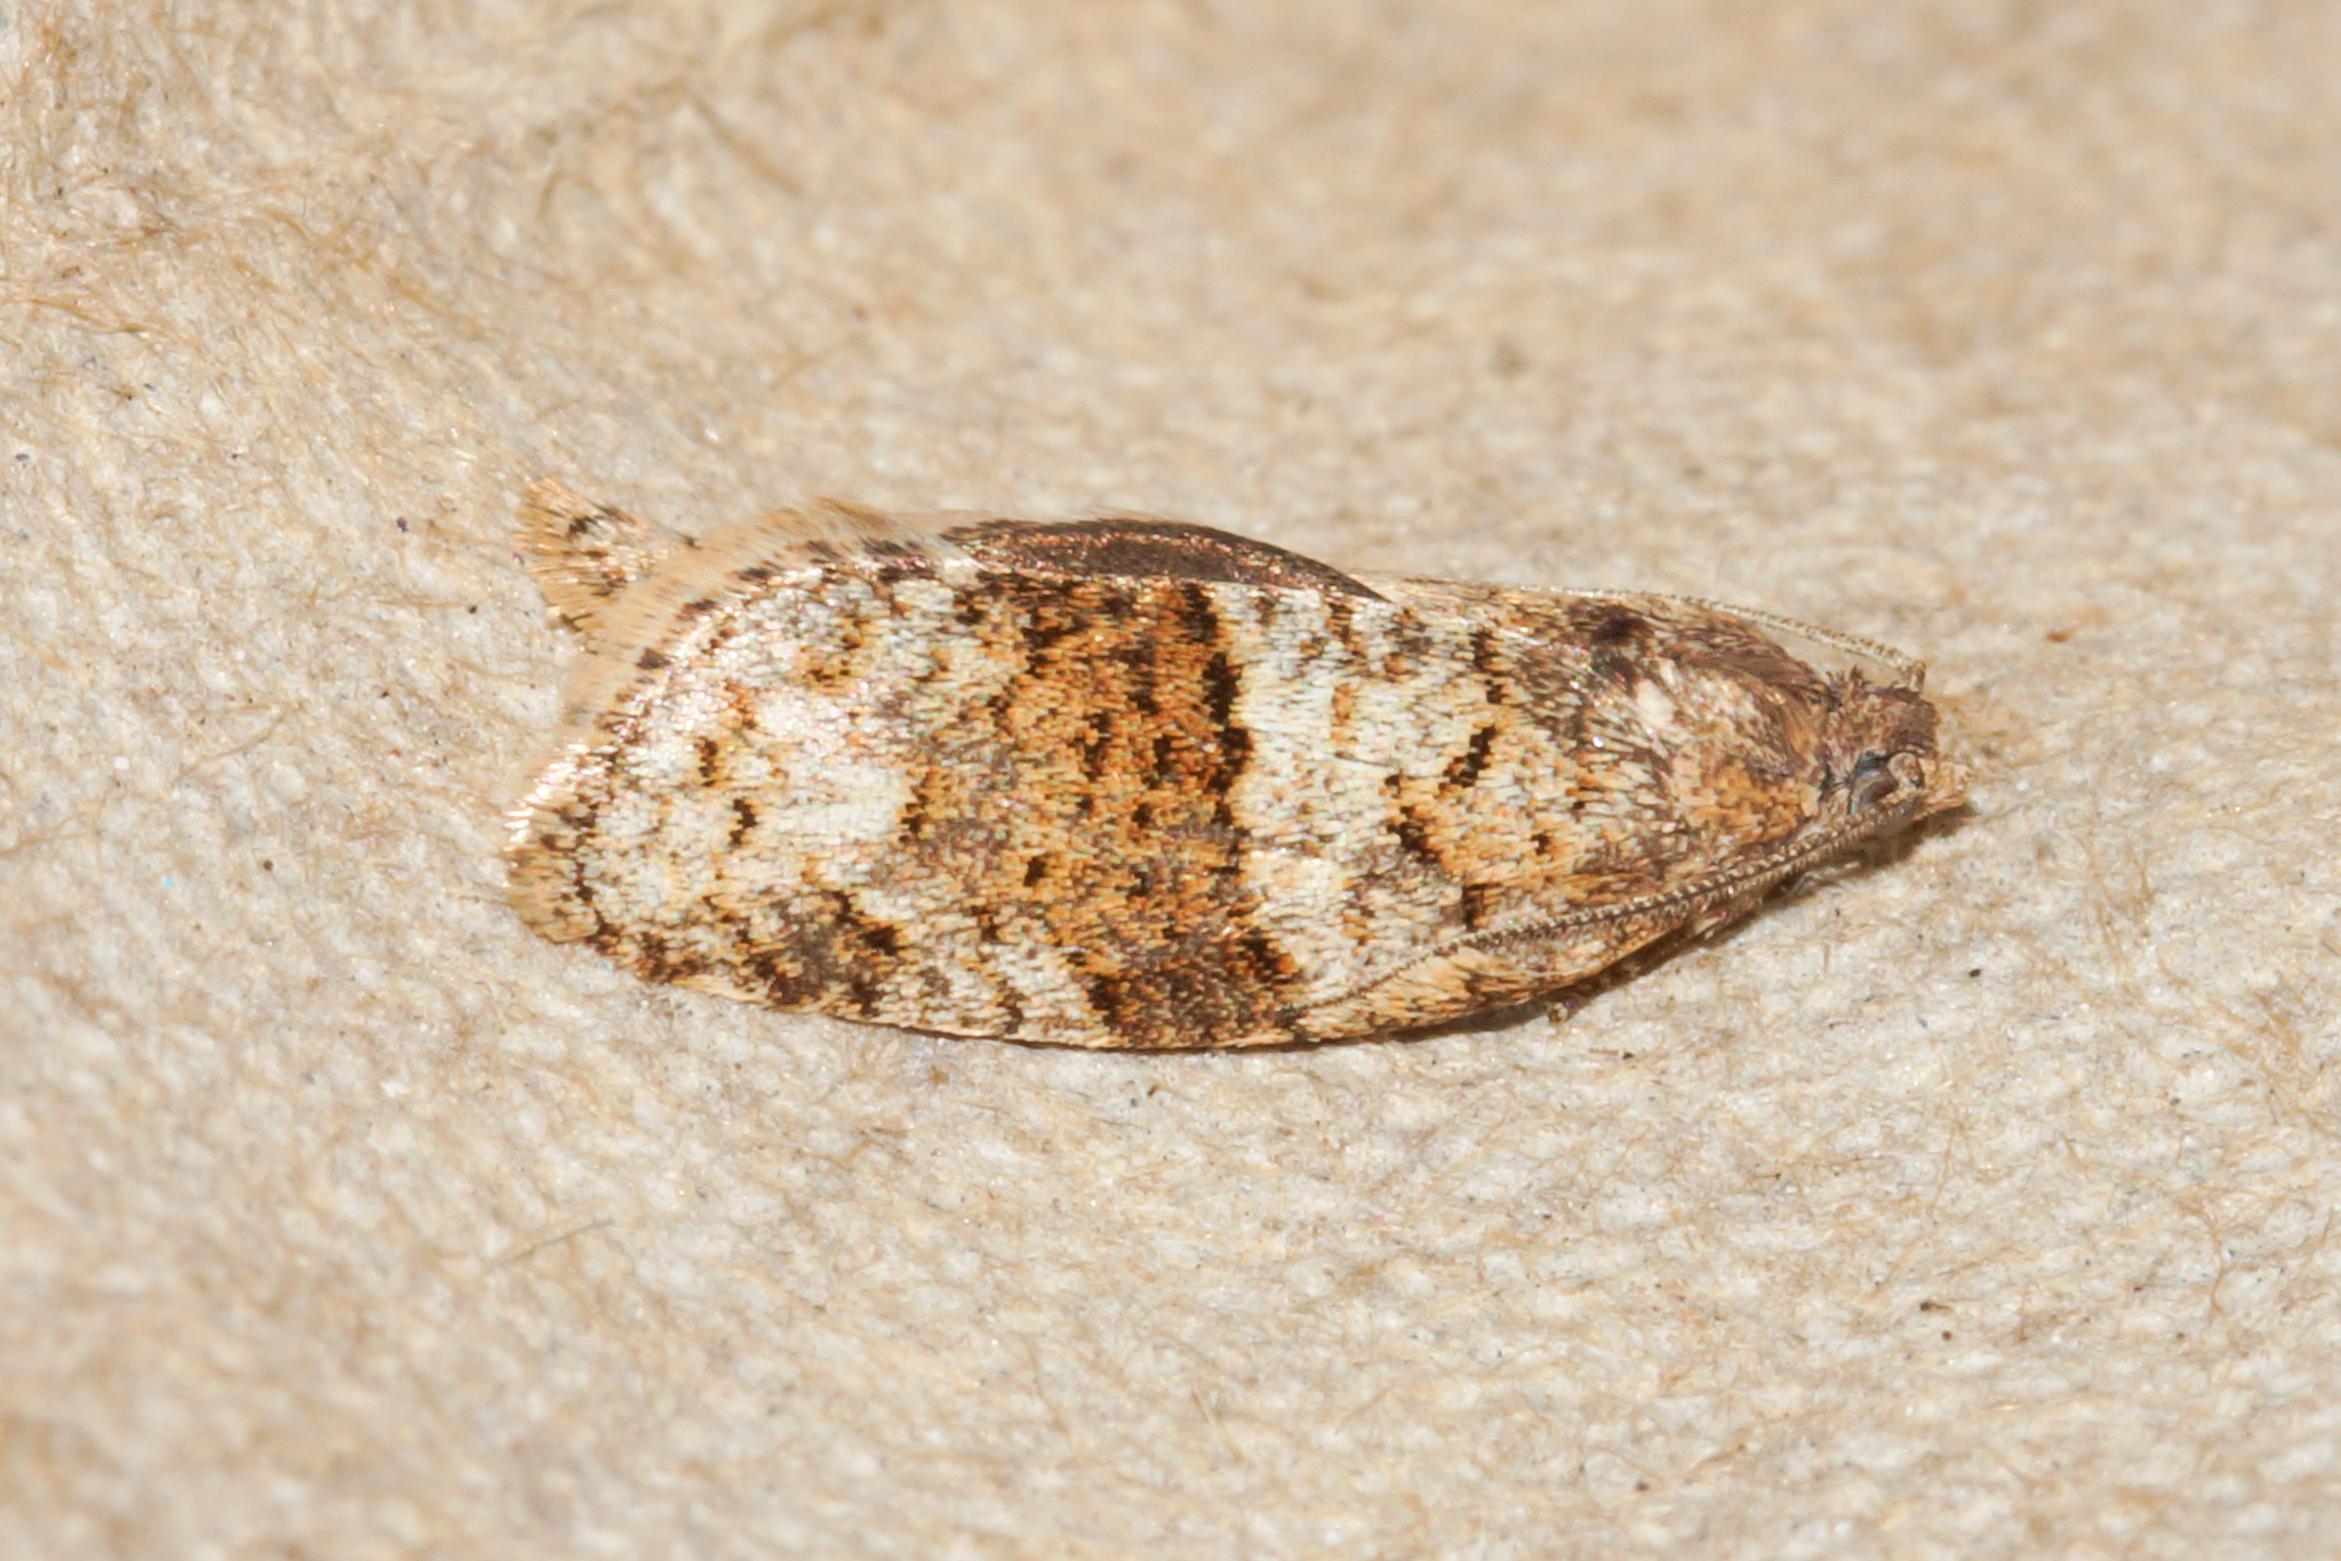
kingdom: Animalia
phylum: Arthropoda
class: Insecta
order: Lepidoptera
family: Tortricidae
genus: Syndemis
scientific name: Syndemis musculana
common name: Høstvikler
